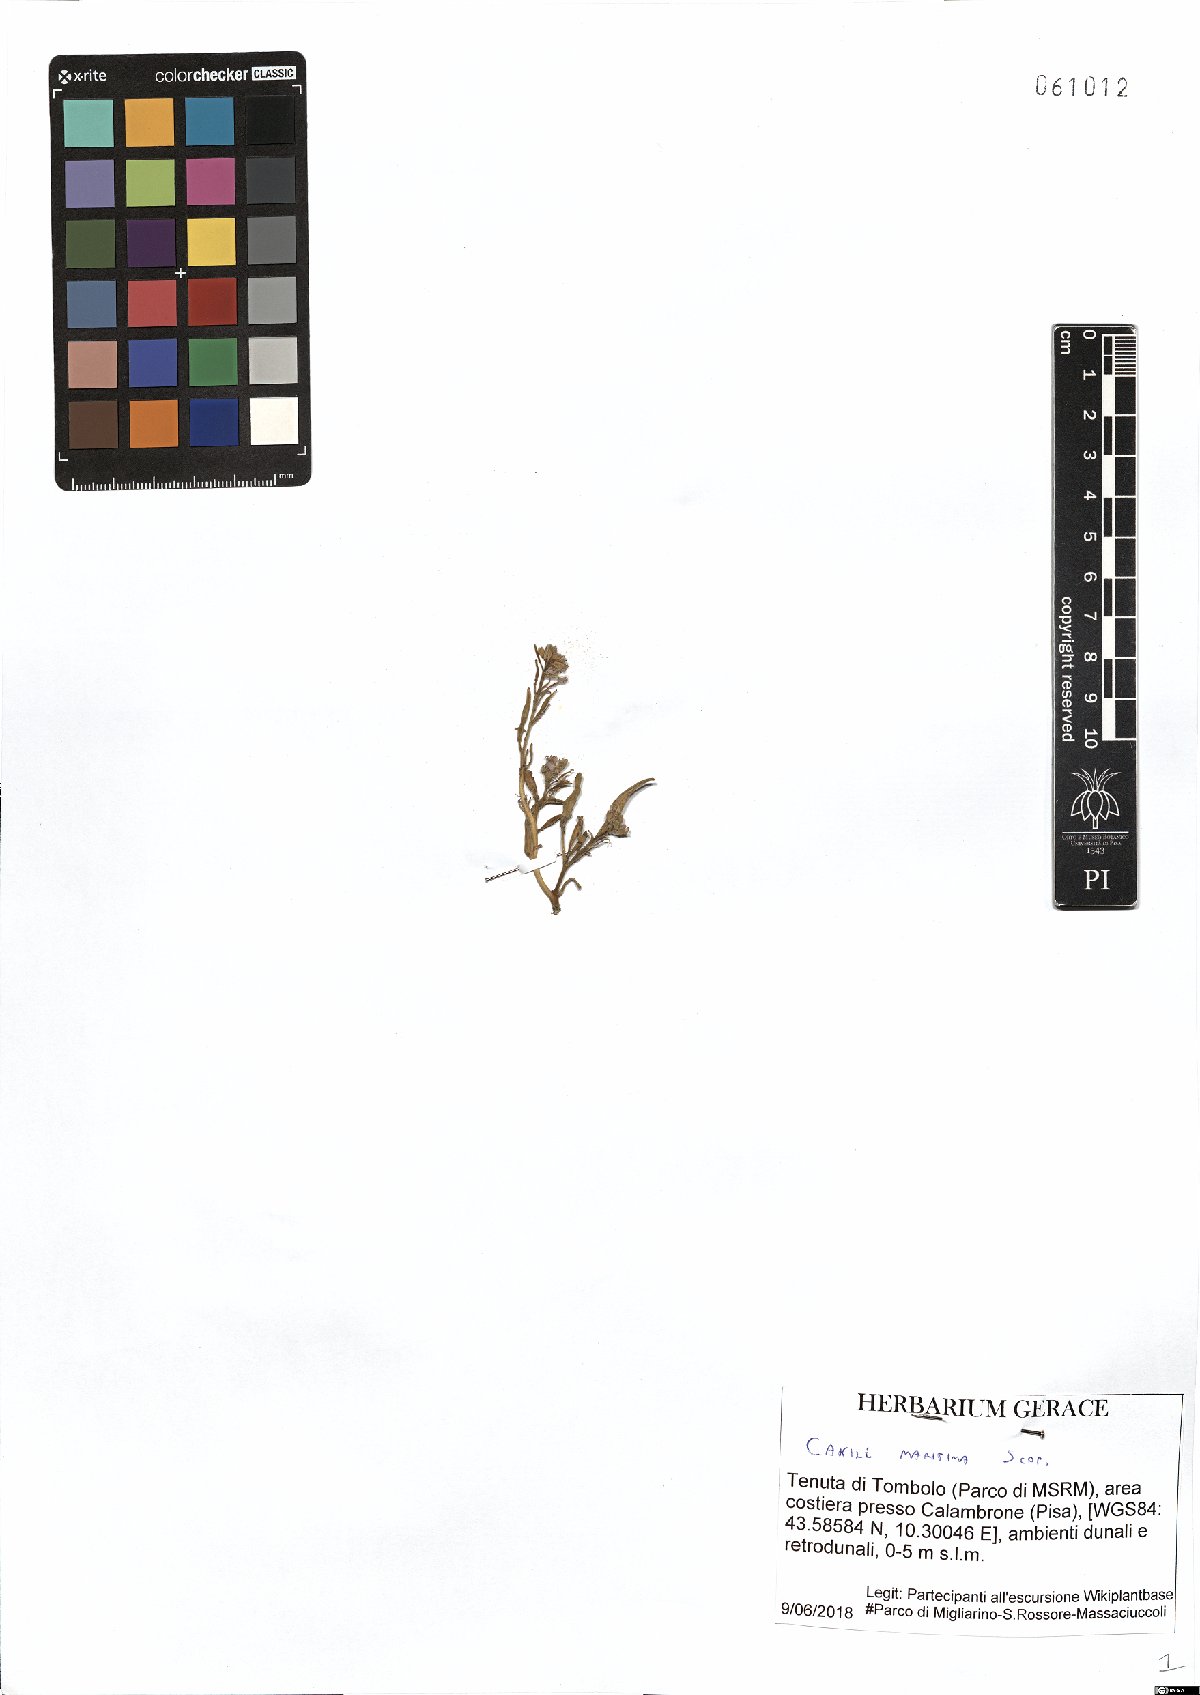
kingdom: Plantae
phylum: Tracheophyta
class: Magnoliopsida
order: Brassicales
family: Brassicaceae
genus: Cakile
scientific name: Cakile maritima
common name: Sea rocket
